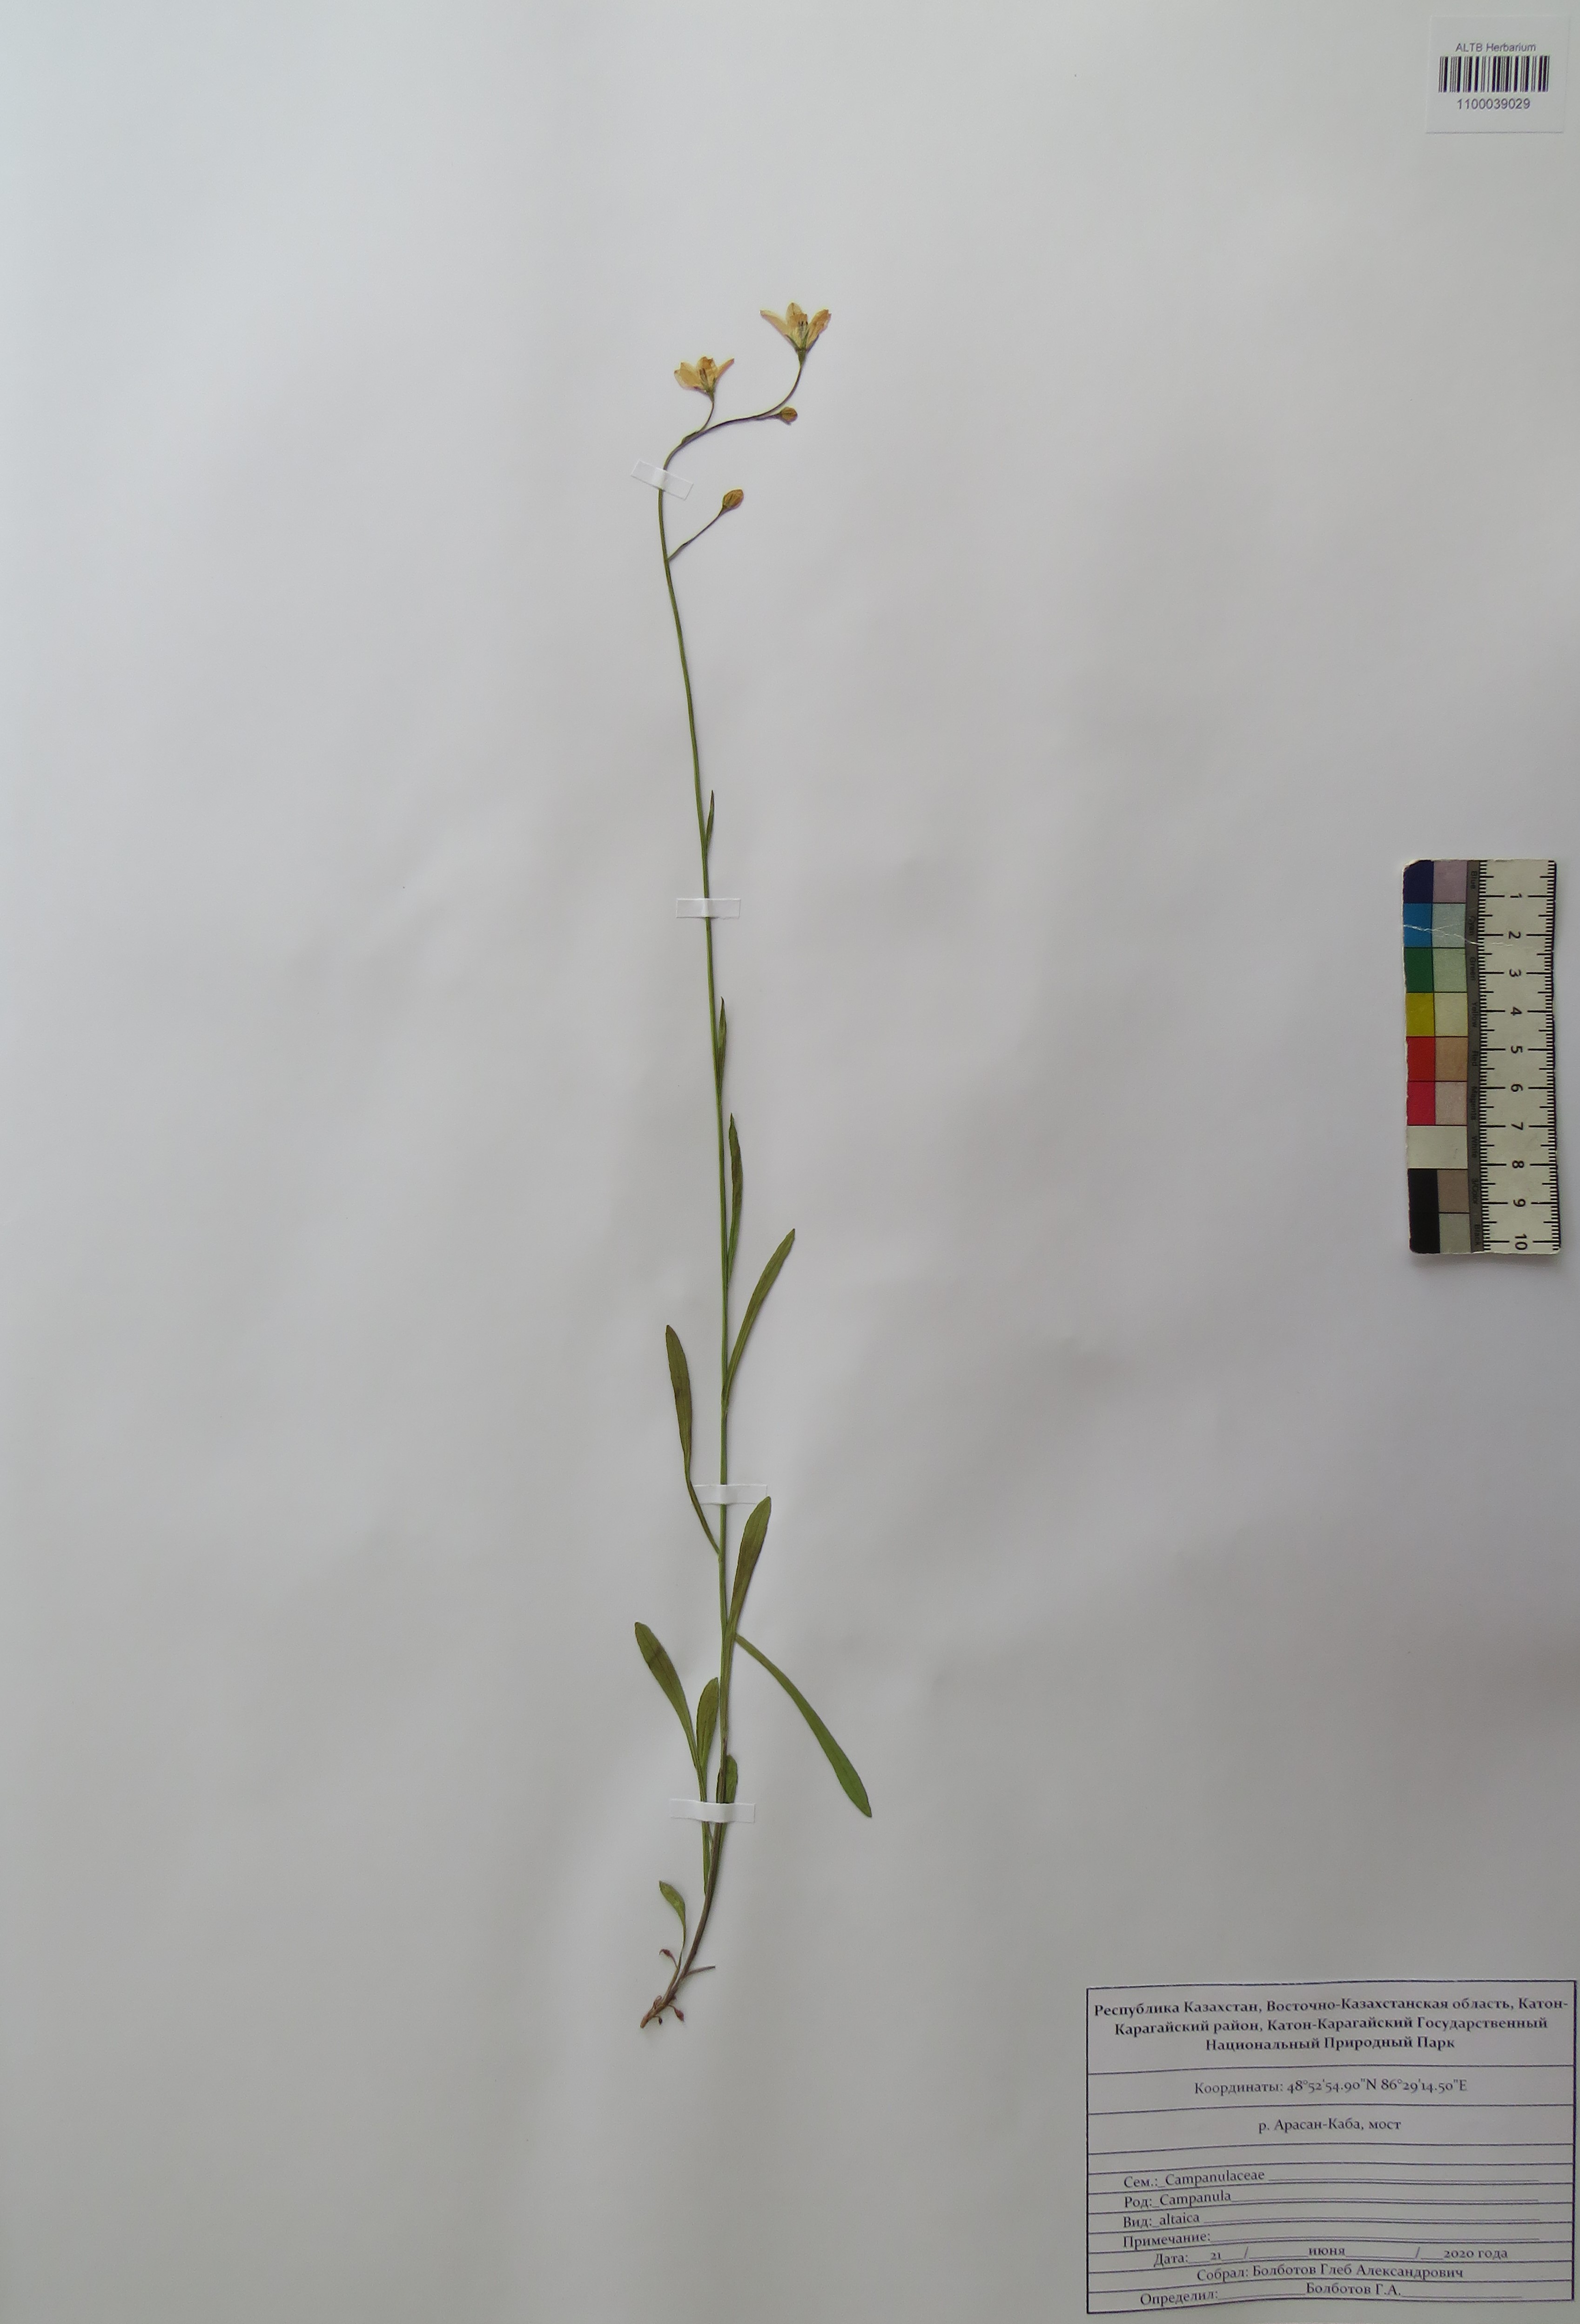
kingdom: Plantae
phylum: Tracheophyta
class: Magnoliopsida
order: Asterales
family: Campanulaceae
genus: Campanula
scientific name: Campanula stevenii
